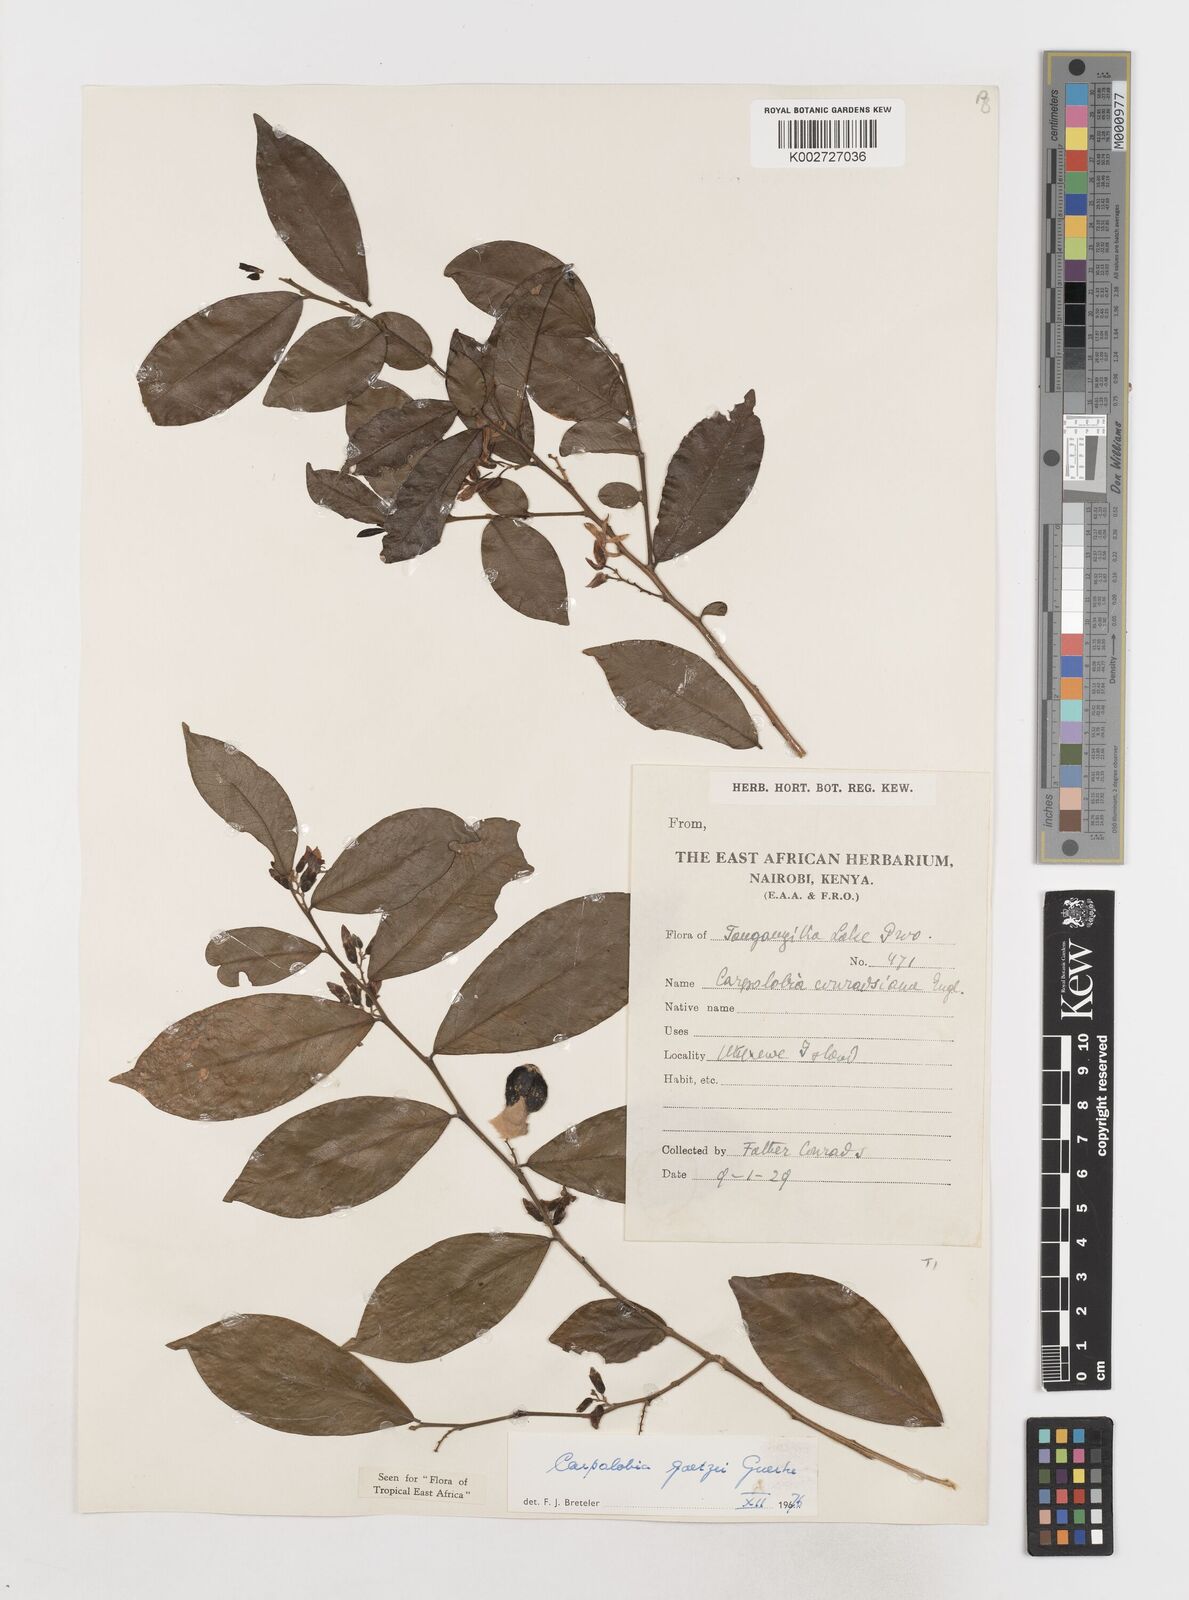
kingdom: Plantae
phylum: Tracheophyta
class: Magnoliopsida
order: Fabales
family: Polygalaceae
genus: Carpolobia
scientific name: Carpolobia goetzei
